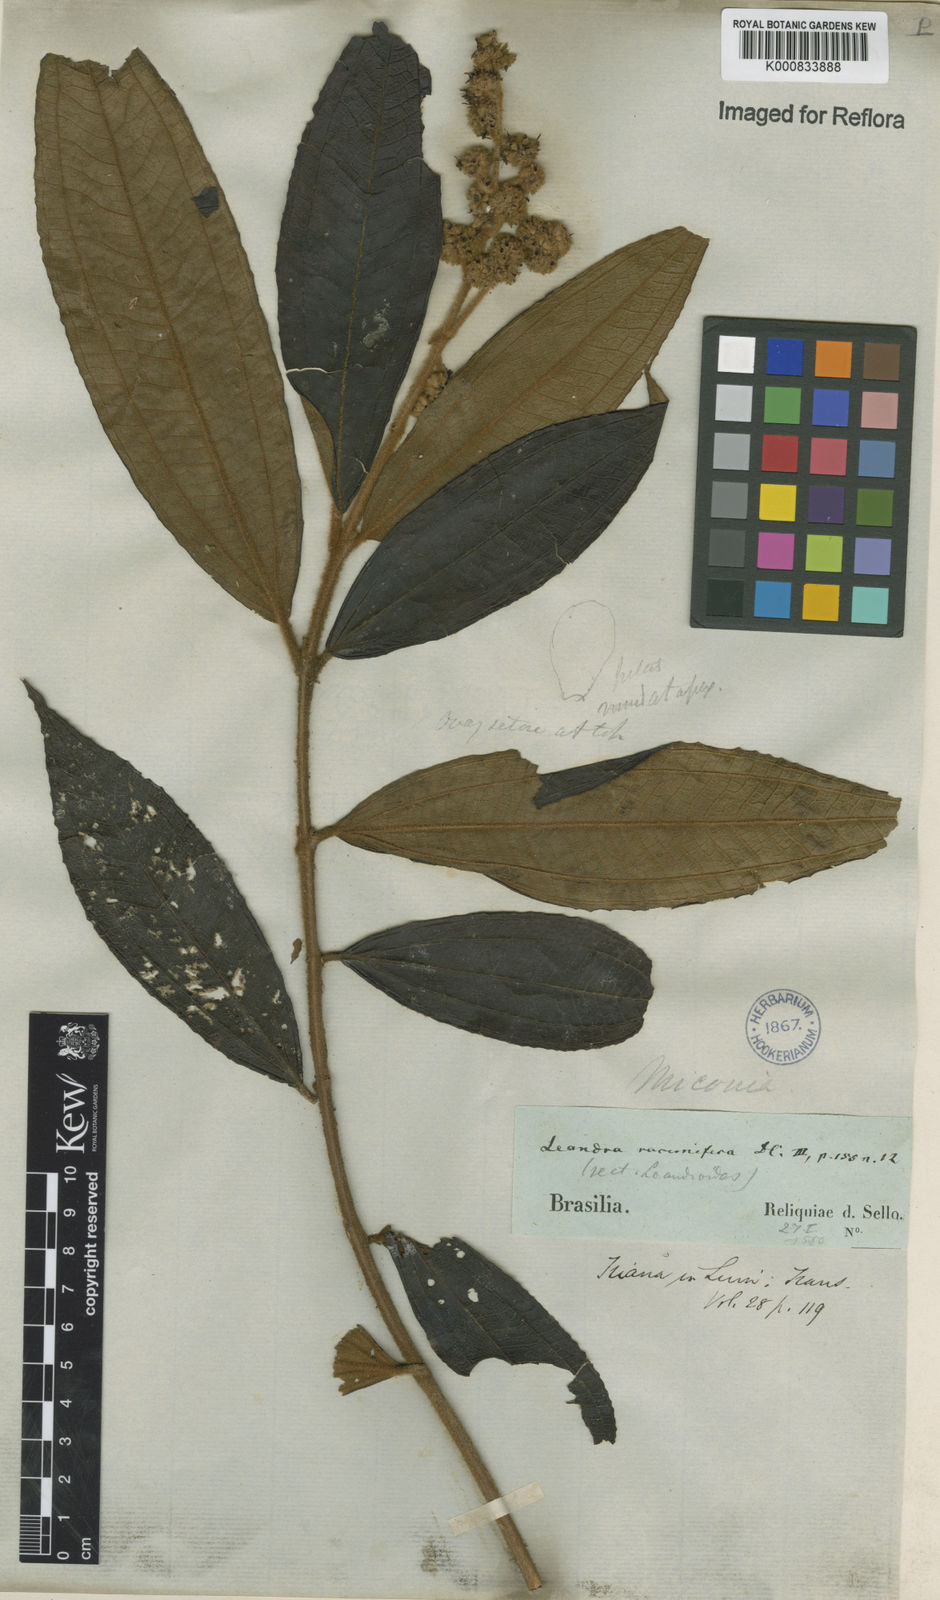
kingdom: Plantae
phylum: Tracheophyta
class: Magnoliopsida
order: Myrtales
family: Melastomataceae
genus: Miconia
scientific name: Miconia racemifera
